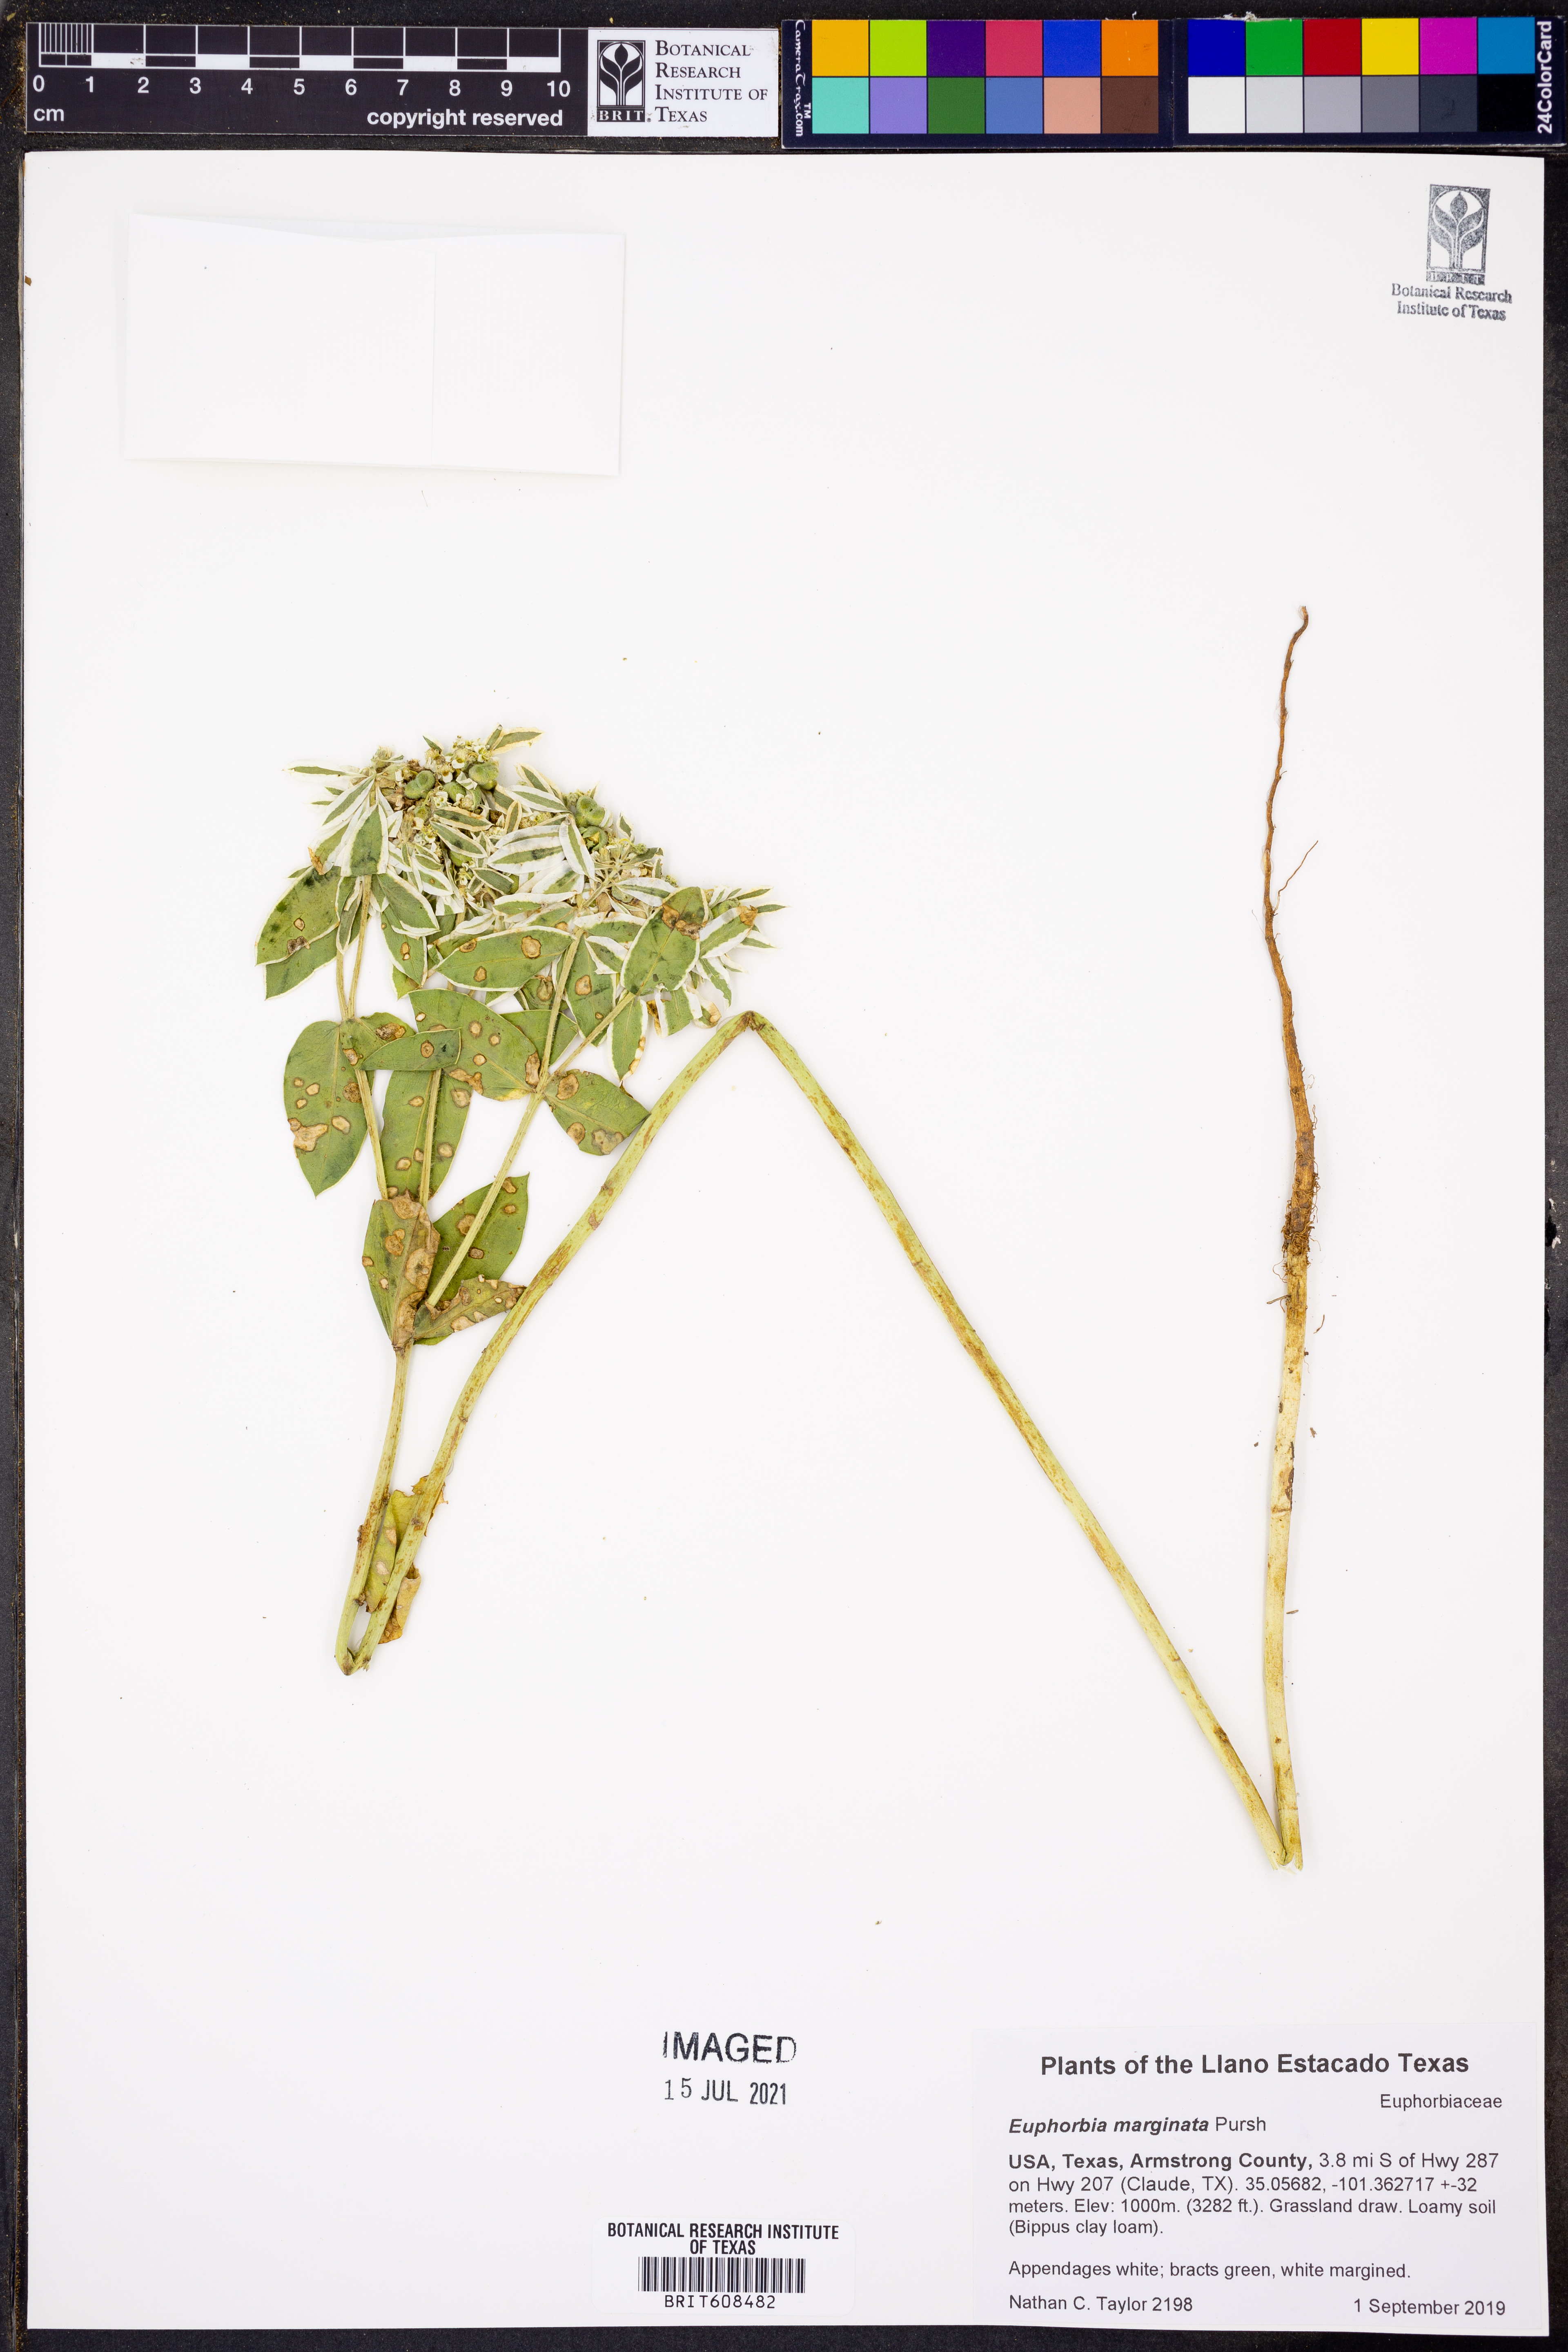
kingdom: Plantae
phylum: Tracheophyta
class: Magnoliopsida
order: Malpighiales
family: Euphorbiaceae
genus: Euphorbia
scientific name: Euphorbia marginata
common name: Ghostweed
